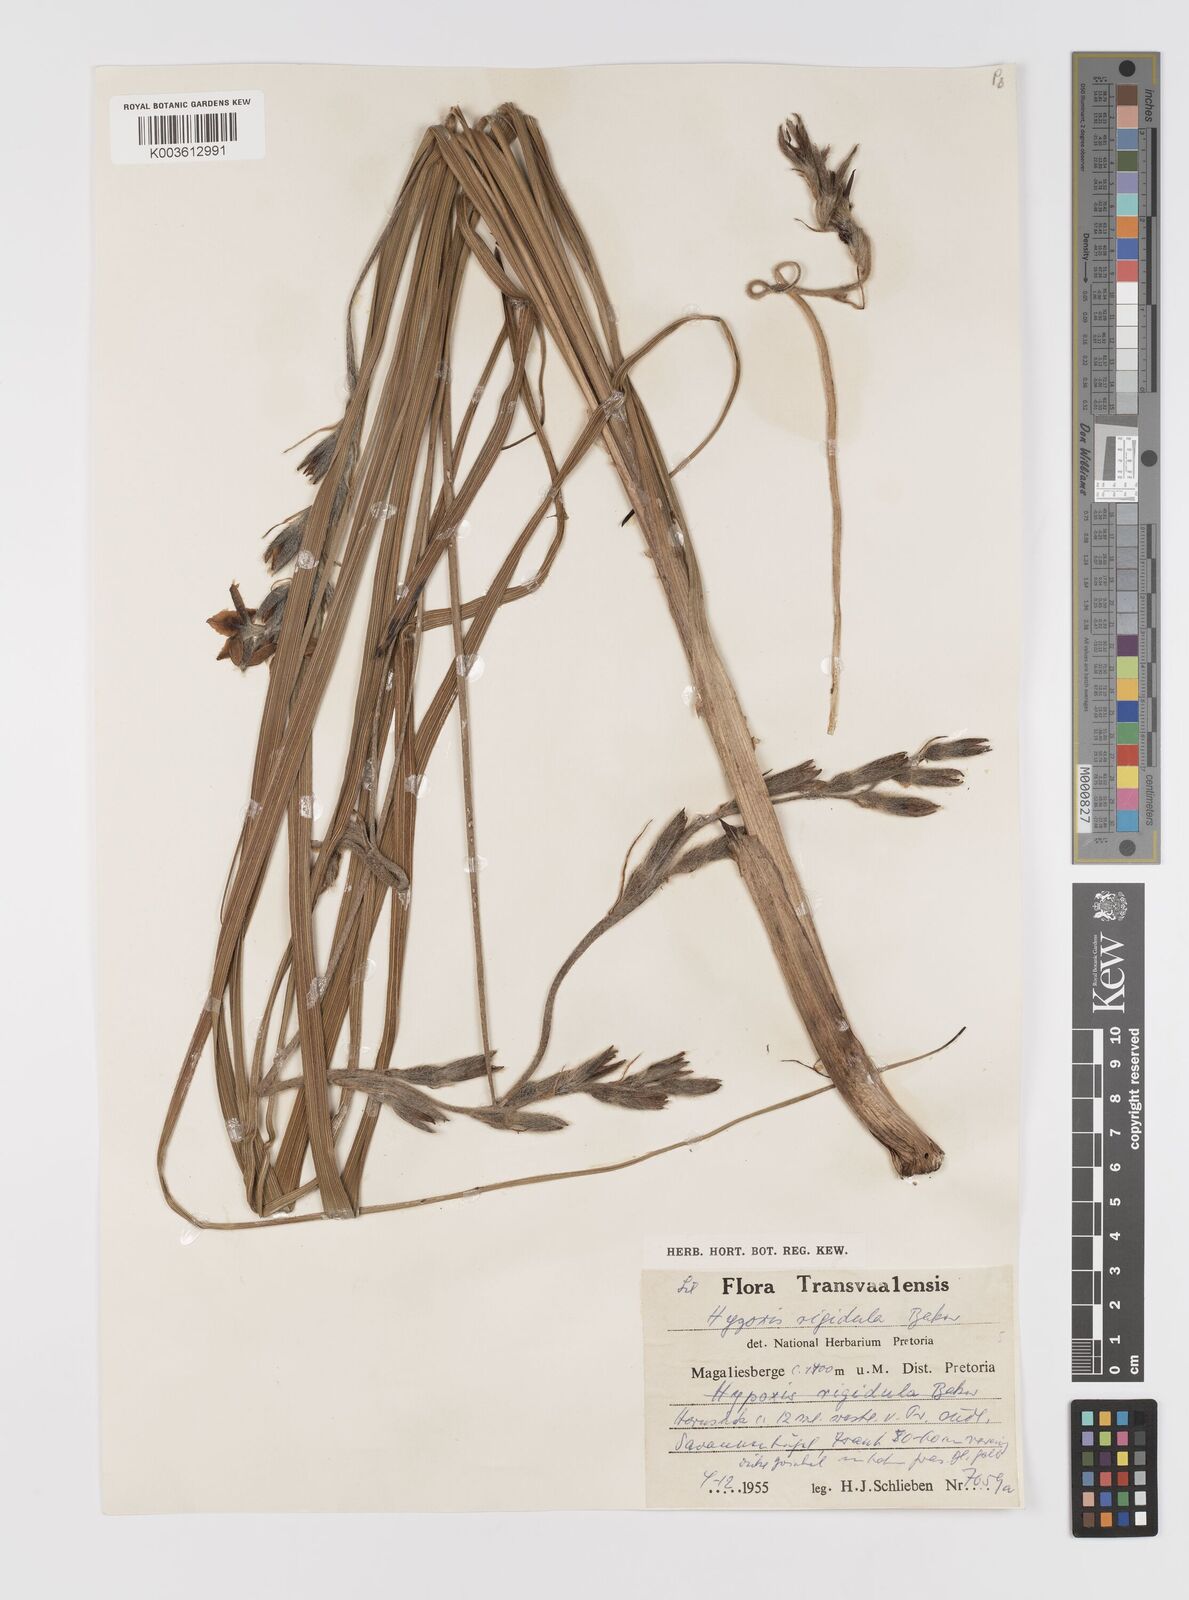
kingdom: Plantae
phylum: Tracheophyta
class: Liliopsida
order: Asparagales
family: Hypoxidaceae
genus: Hypoxis
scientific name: Hypoxis rigidula
